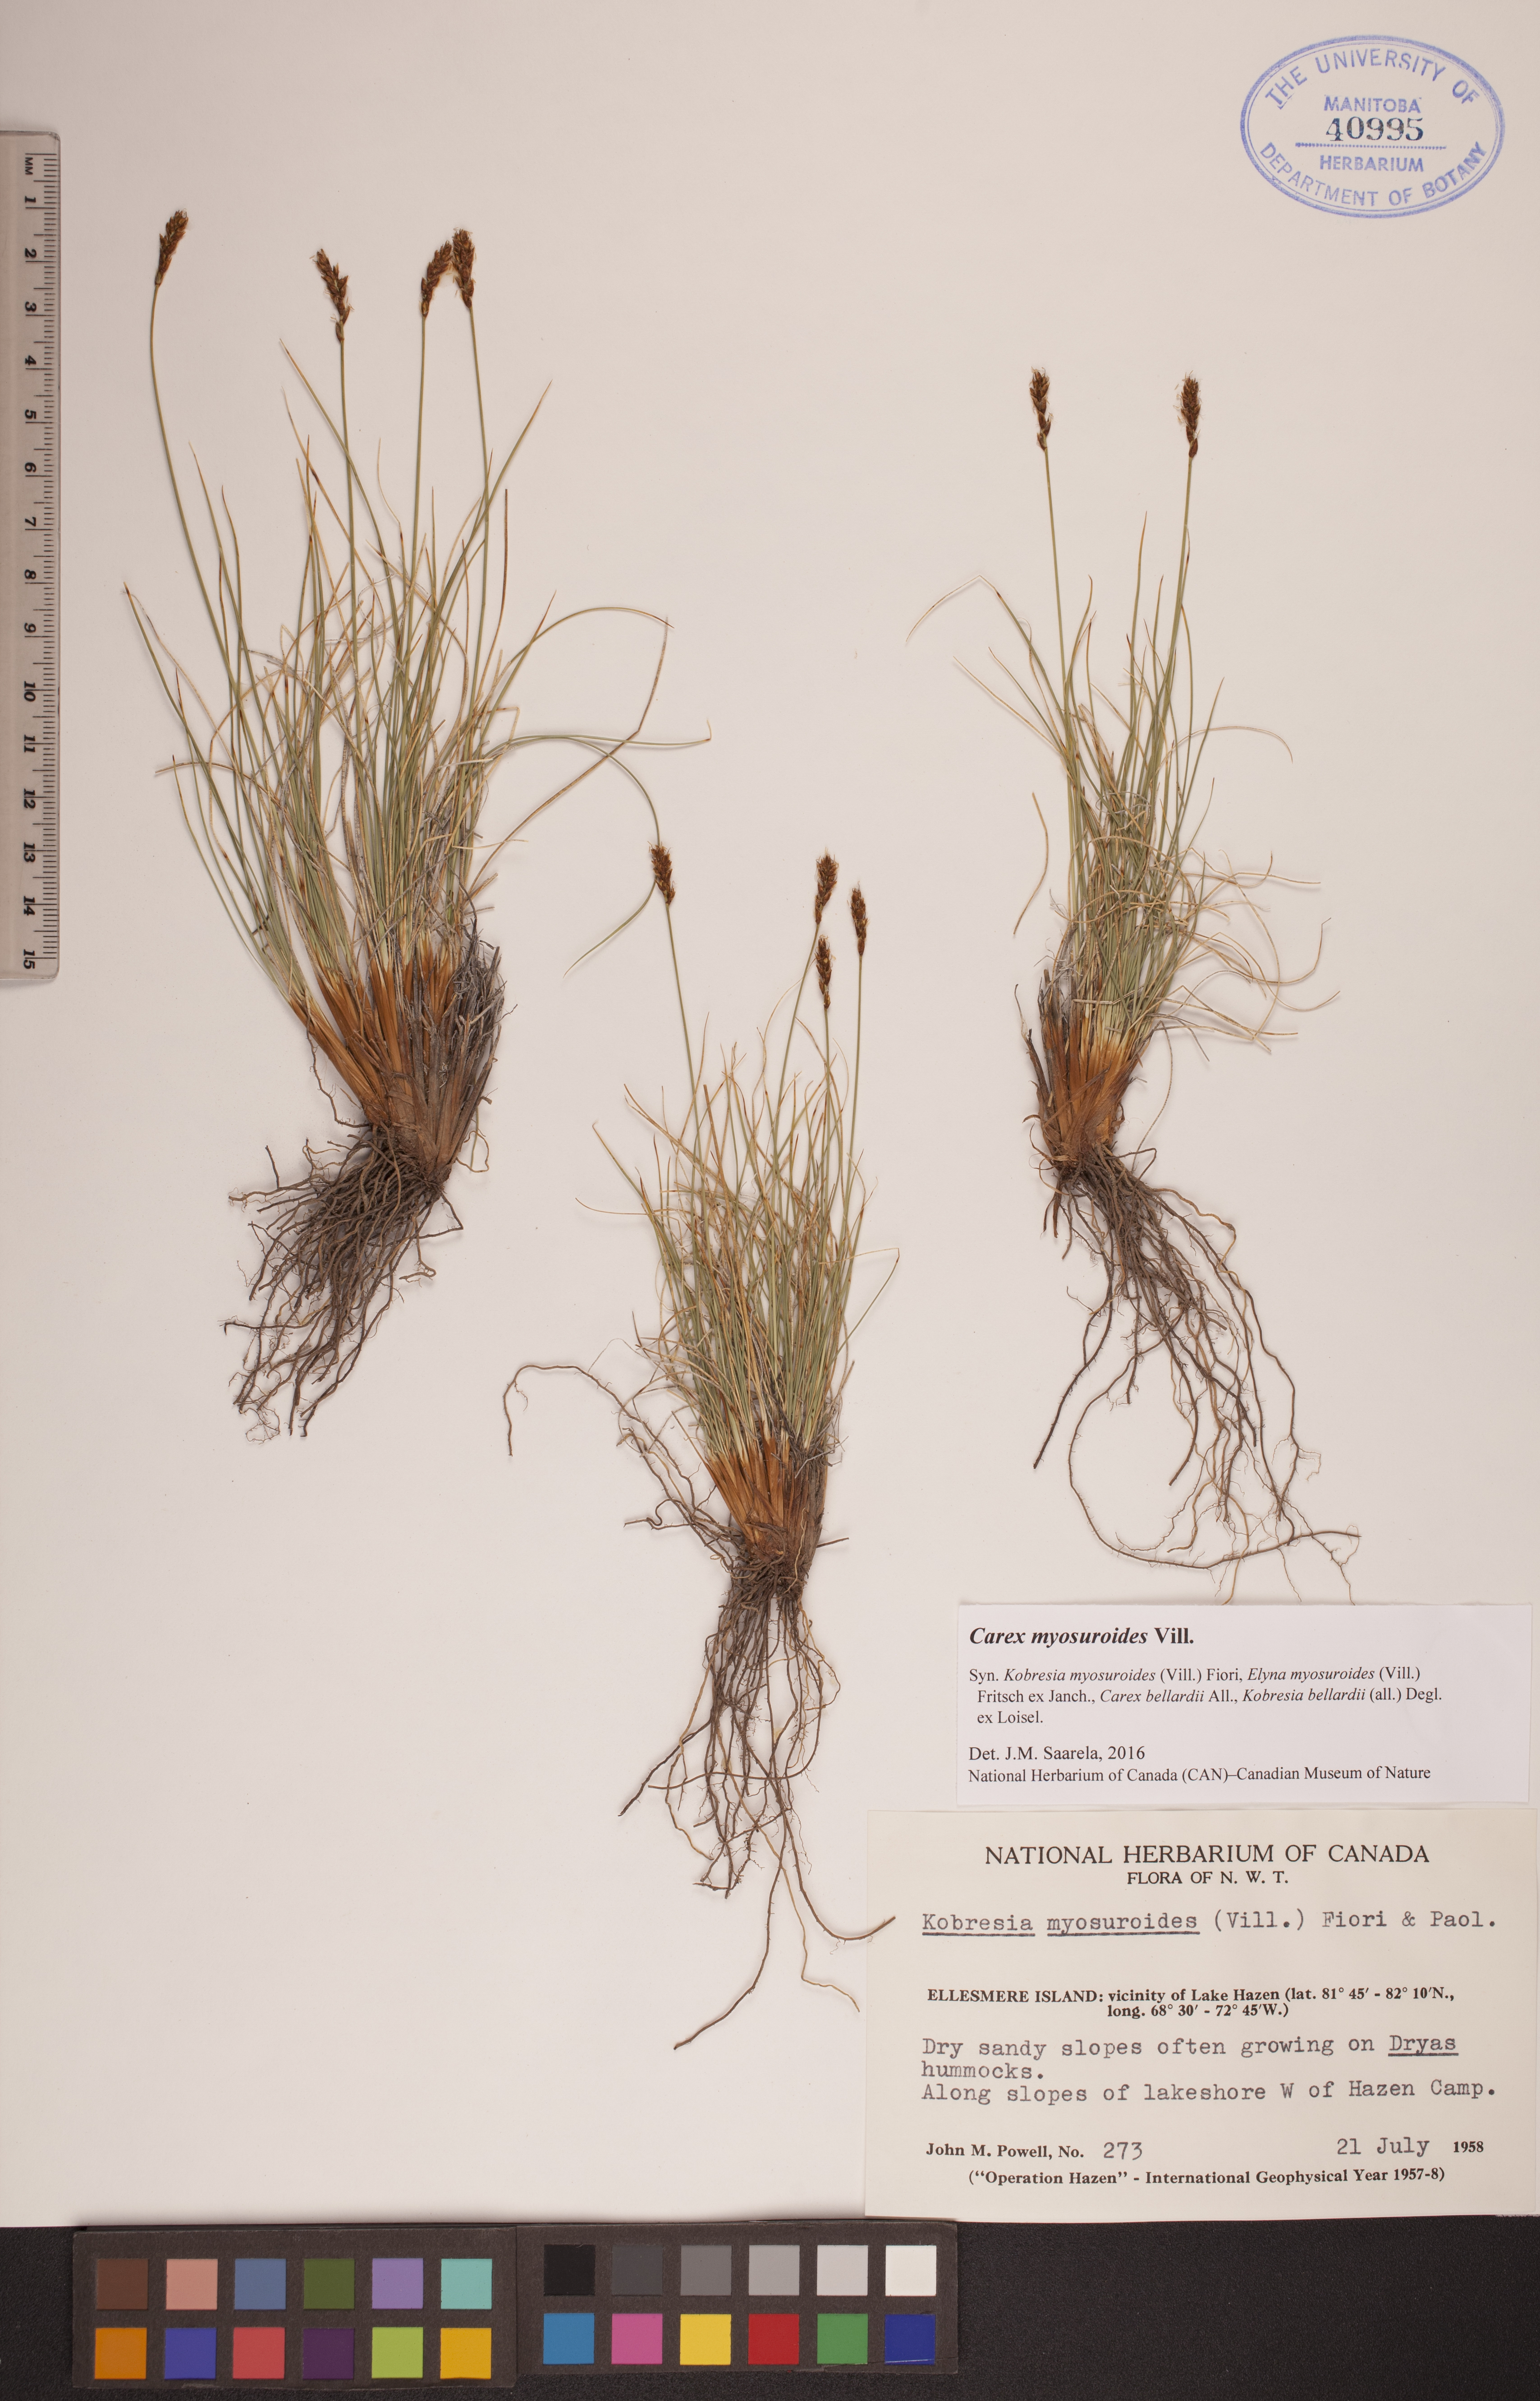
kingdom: Plantae
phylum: Tracheophyta
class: Liliopsida
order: Poales
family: Cyperaceae
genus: Carex
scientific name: Carex myosuroides
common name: Bellard's bog sedge
